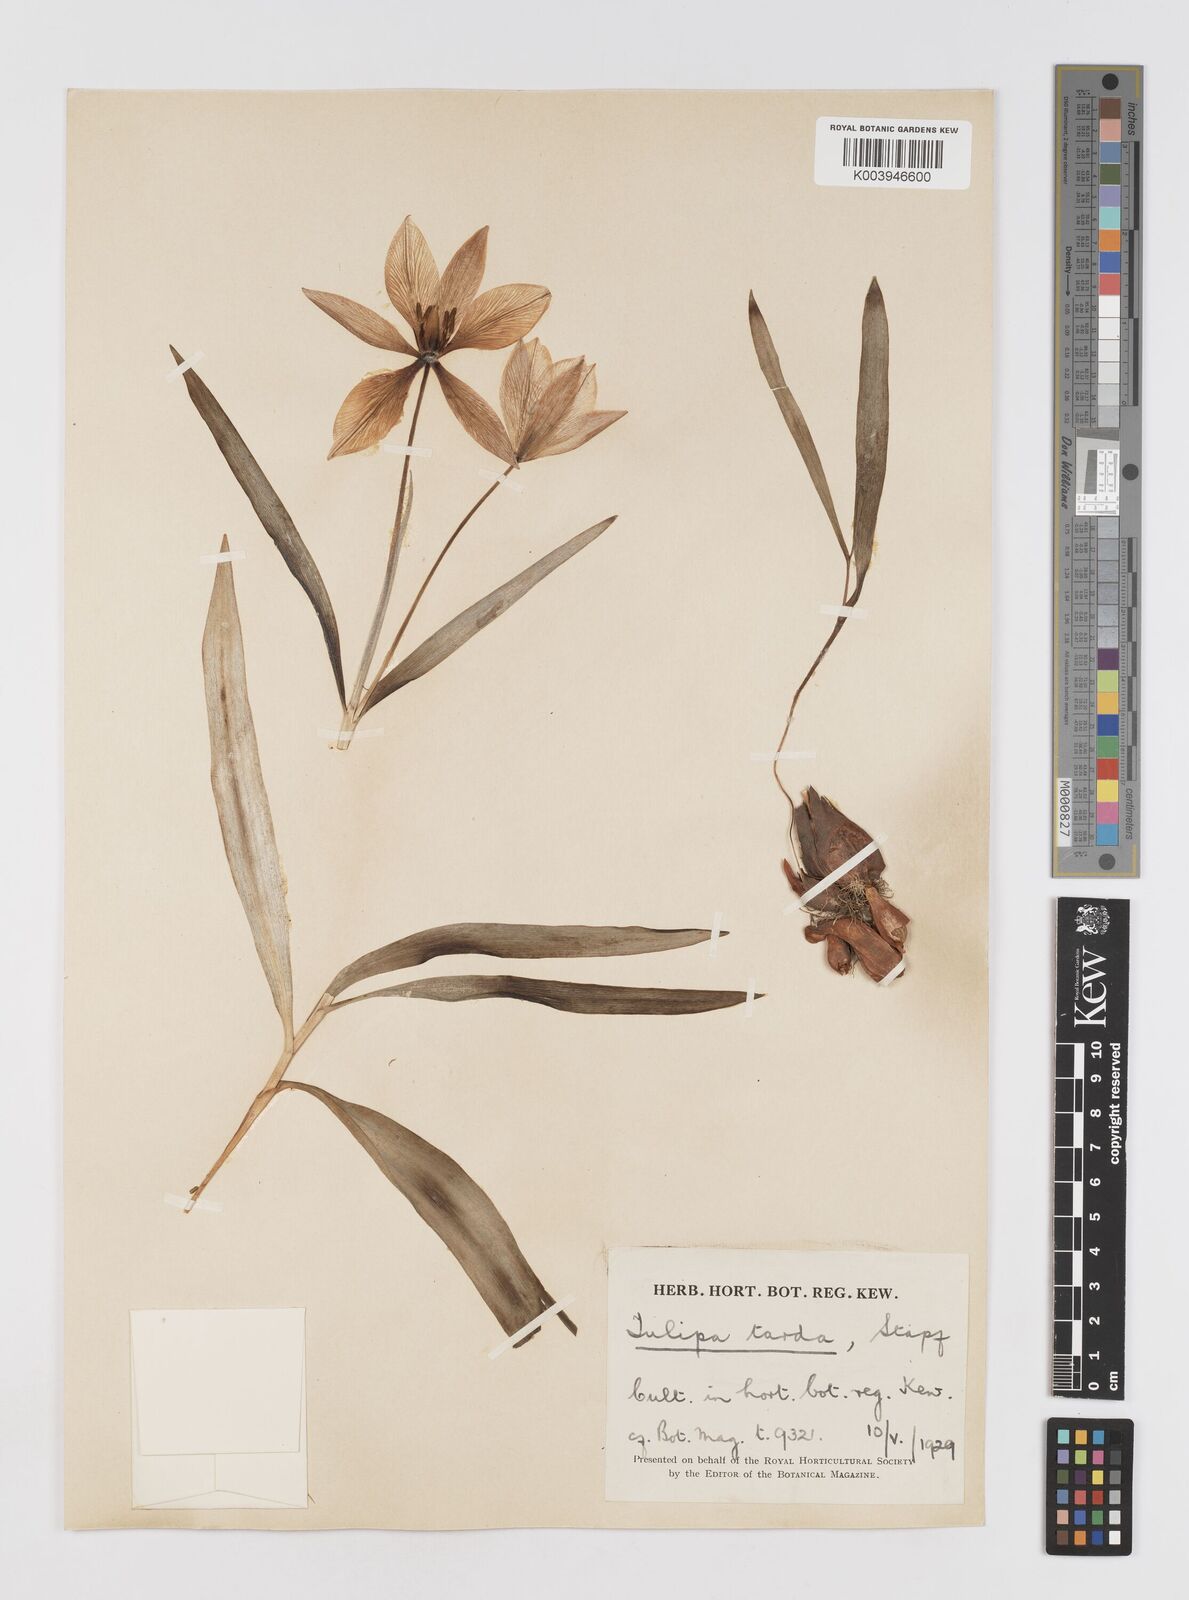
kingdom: Plantae
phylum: Tracheophyta
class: Liliopsida
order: Liliales
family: Liliaceae
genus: Tulipa
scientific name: Tulipa urumiensis
